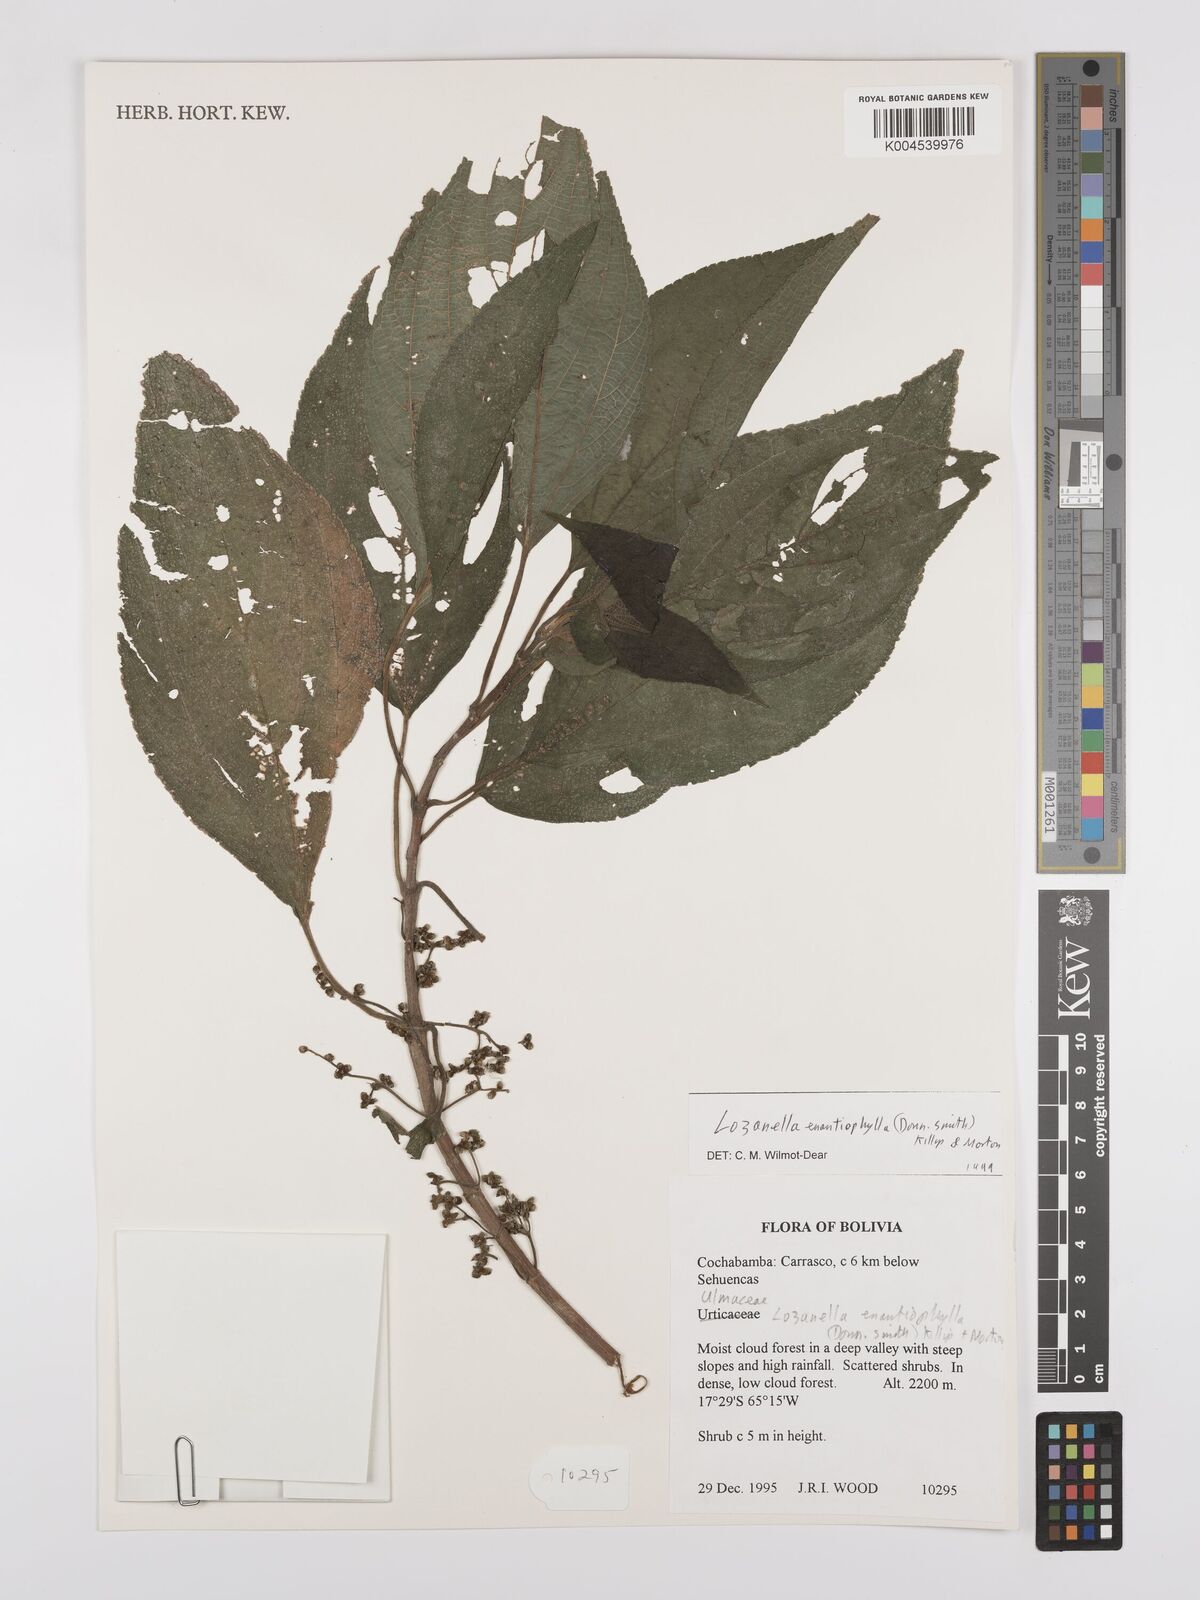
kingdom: Plantae
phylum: Tracheophyta
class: Magnoliopsida
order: Rosales
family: Cannabaceae
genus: Lozanella
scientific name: Lozanella enantiophylla
